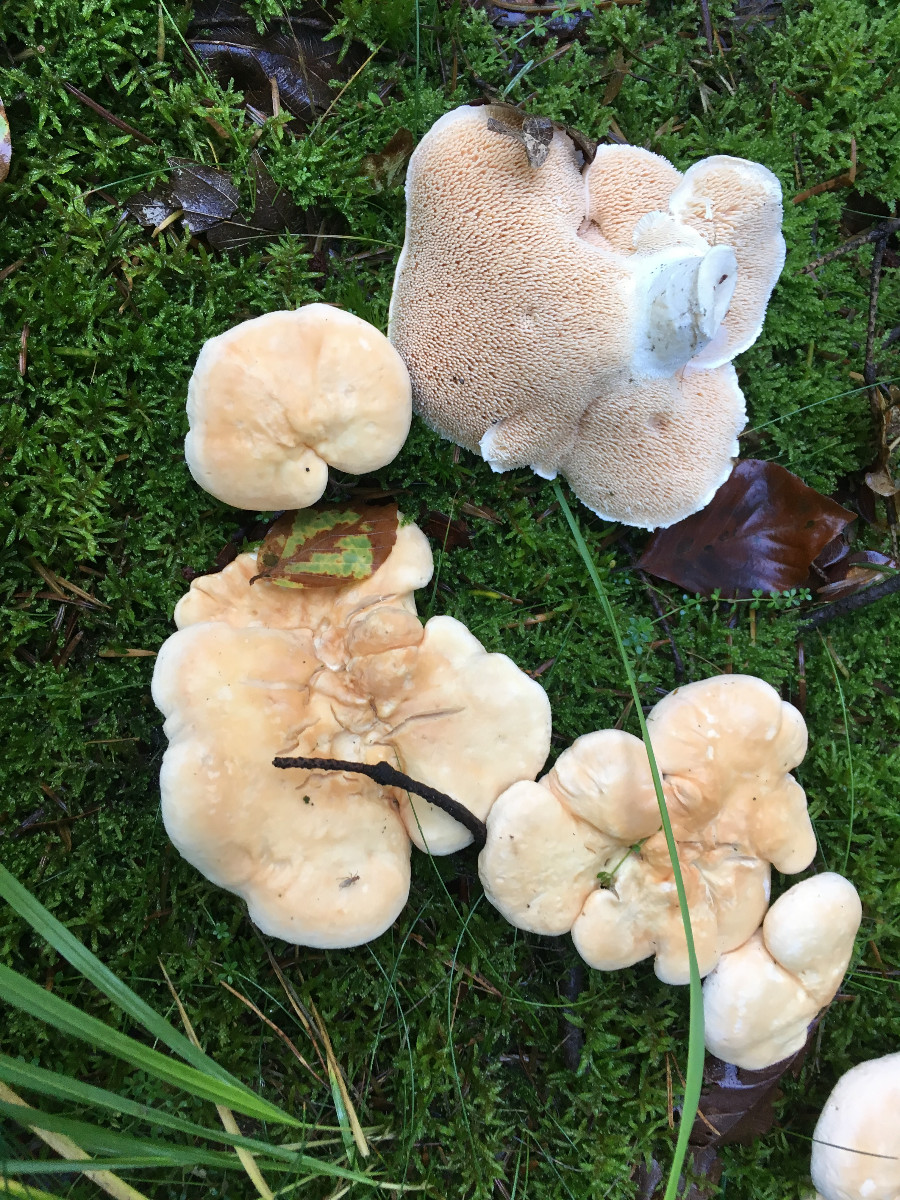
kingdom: Fungi
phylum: Basidiomycota
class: Agaricomycetes
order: Cantharellales
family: Hydnaceae
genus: Hydnum
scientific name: Hydnum repandum
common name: almindelig pigsvamp
